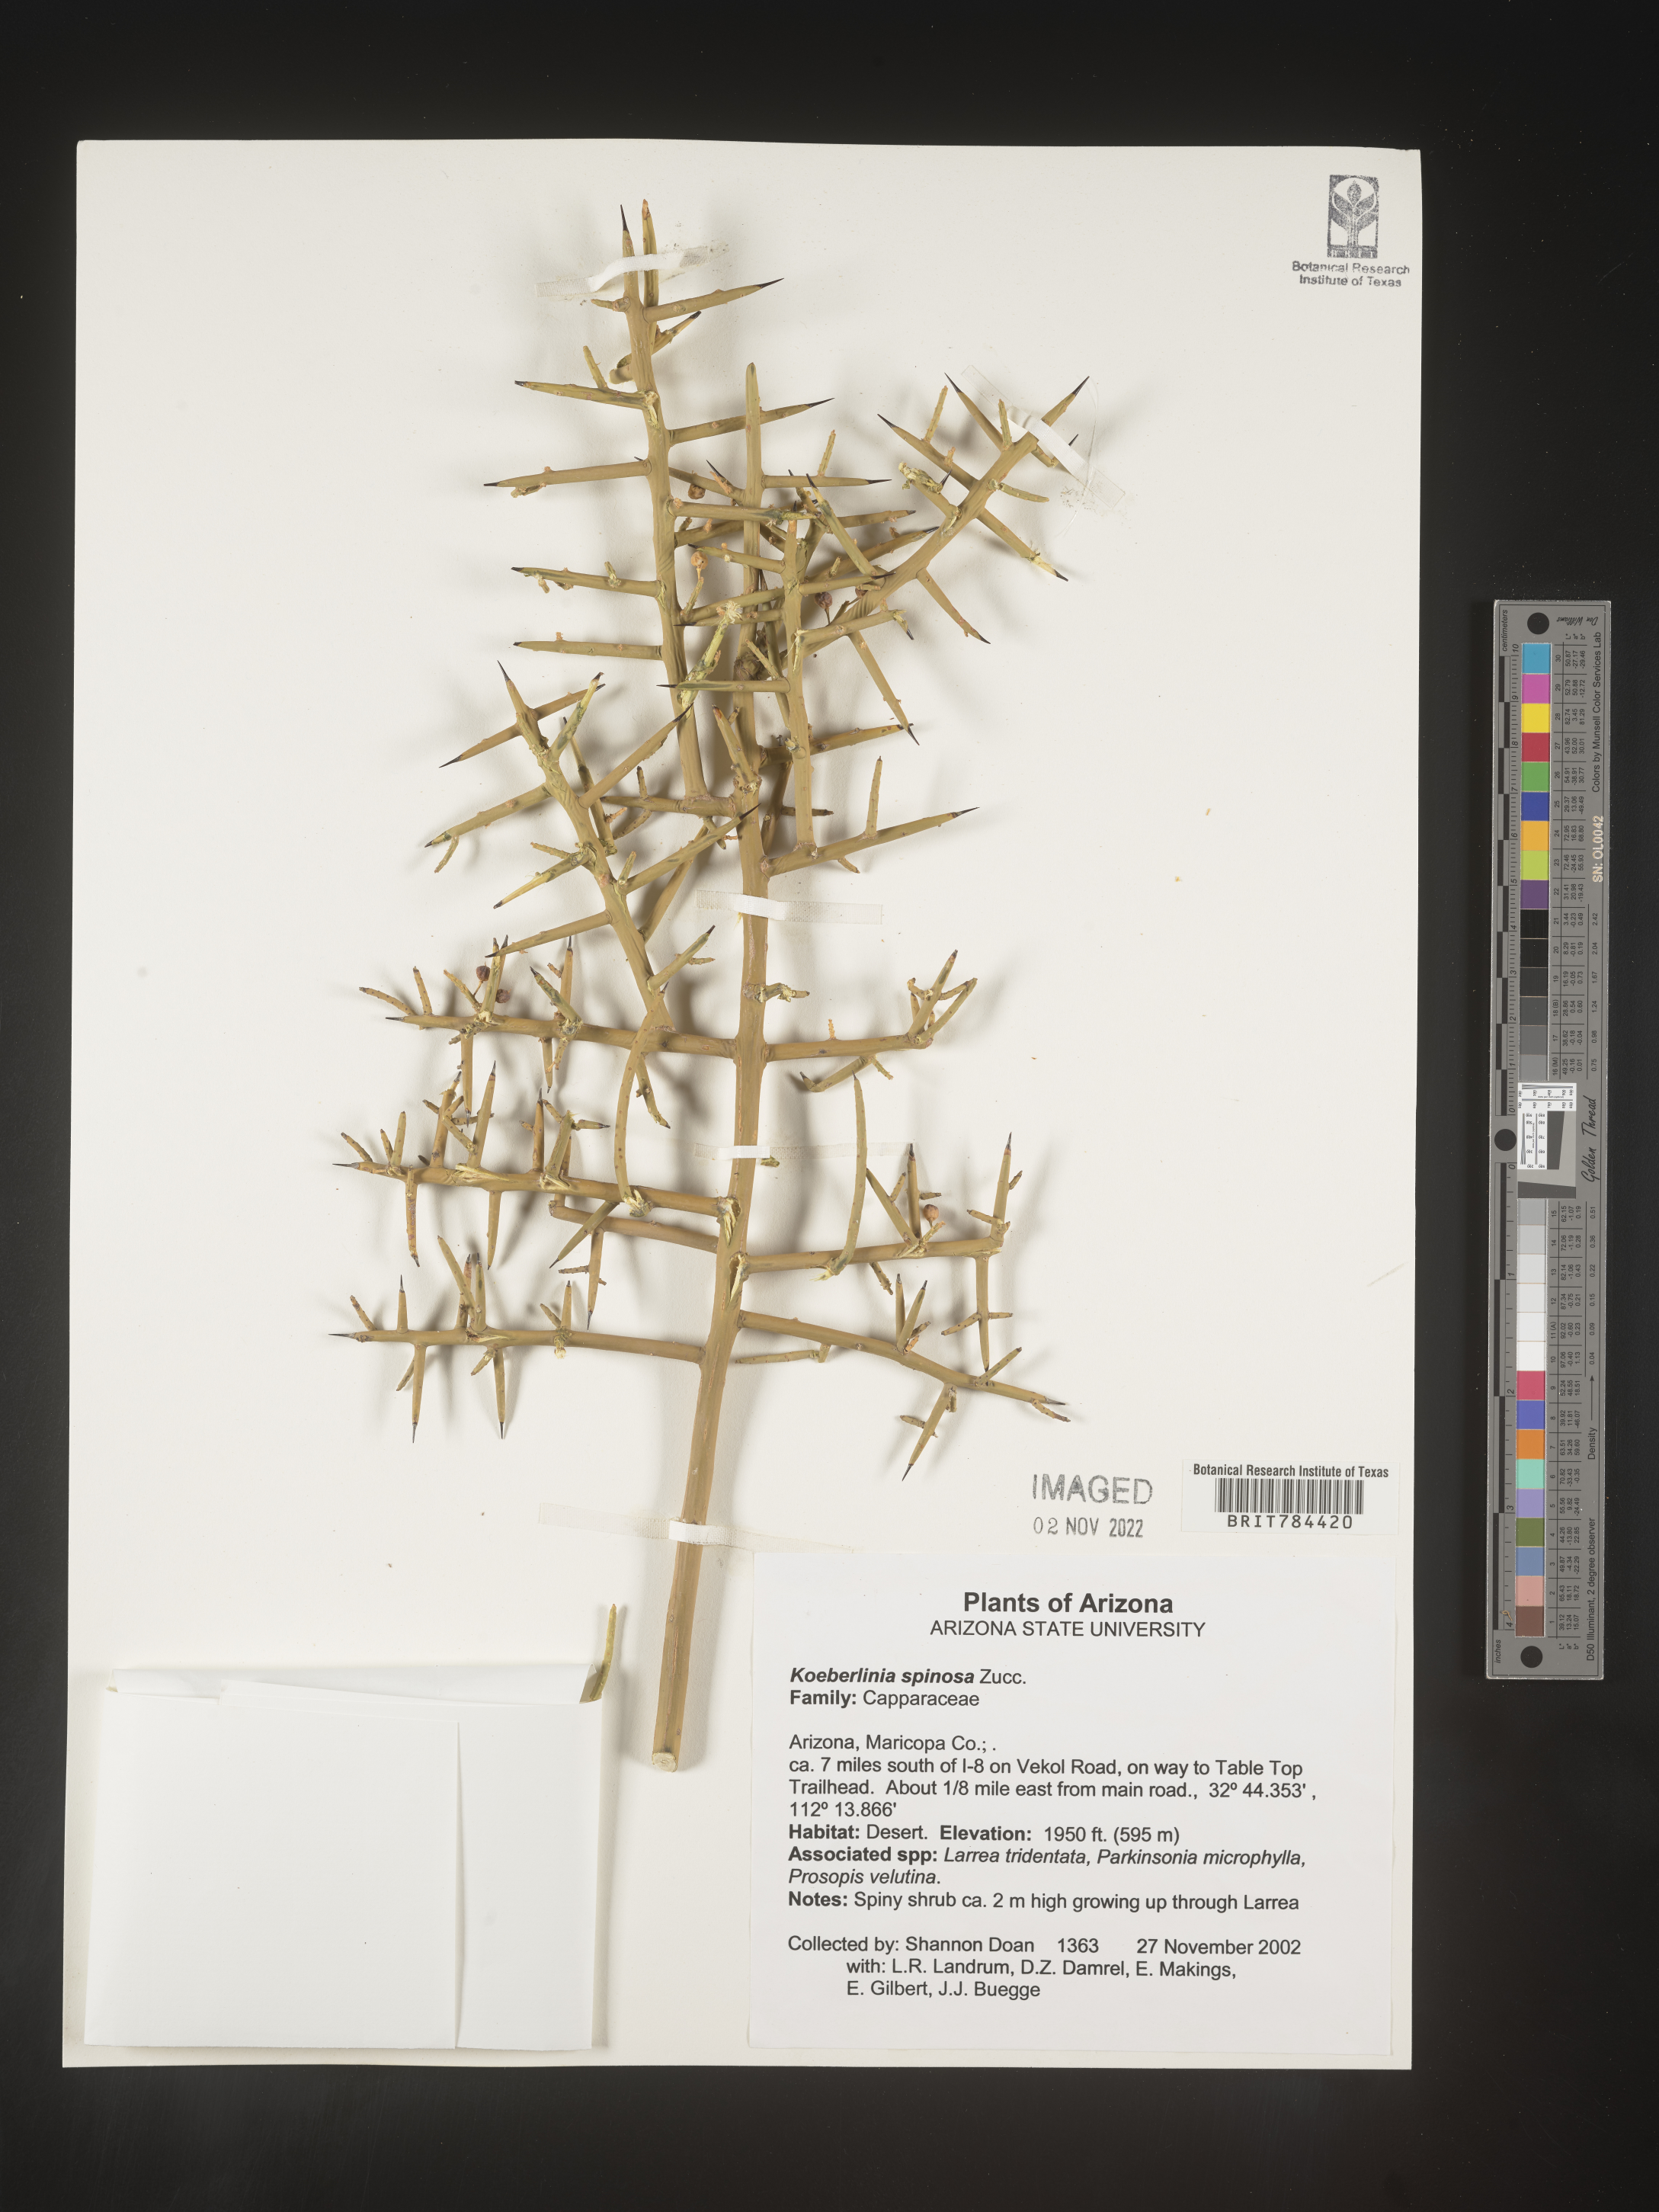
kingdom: Plantae
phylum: Tracheophyta
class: Magnoliopsida
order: Brassicales
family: Koeberliniaceae
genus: Koeberlinia
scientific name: Koeberlinia spinosa
